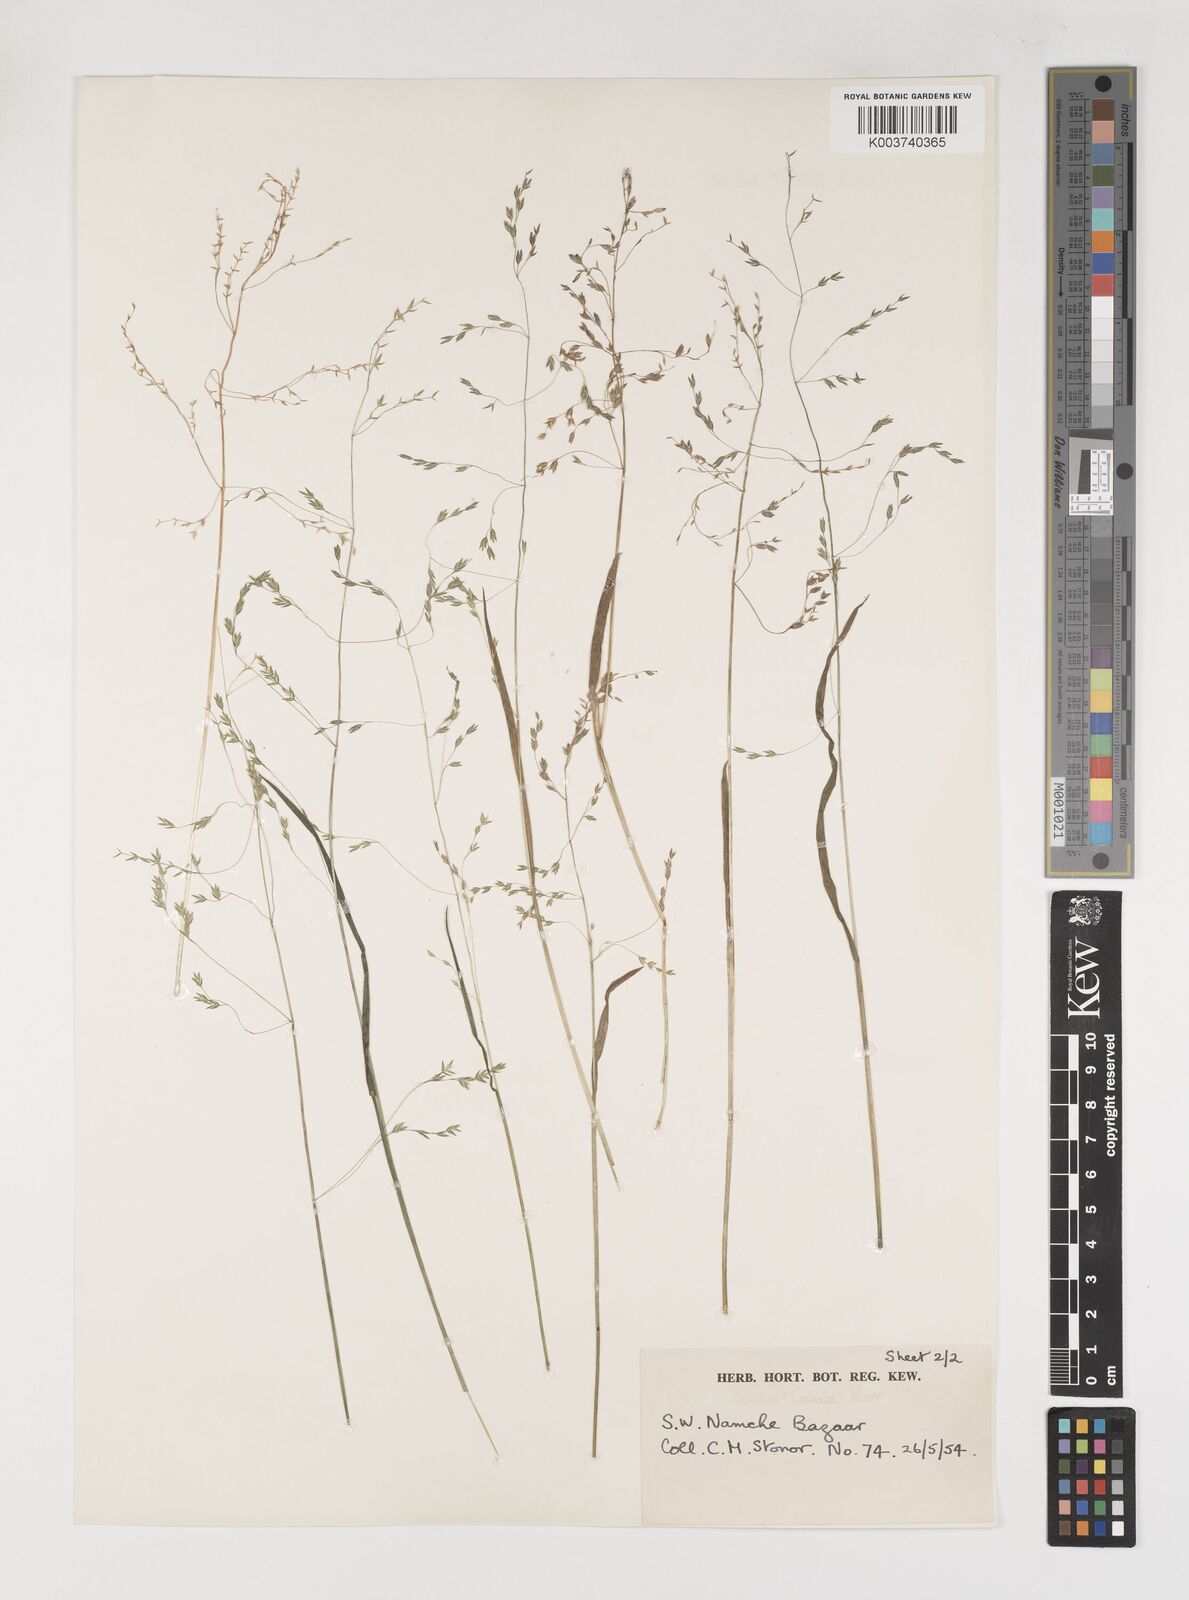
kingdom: Plantae
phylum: Tracheophyta
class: Liliopsida
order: Poales
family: Poaceae
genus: Poa
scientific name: Poa himalayana
